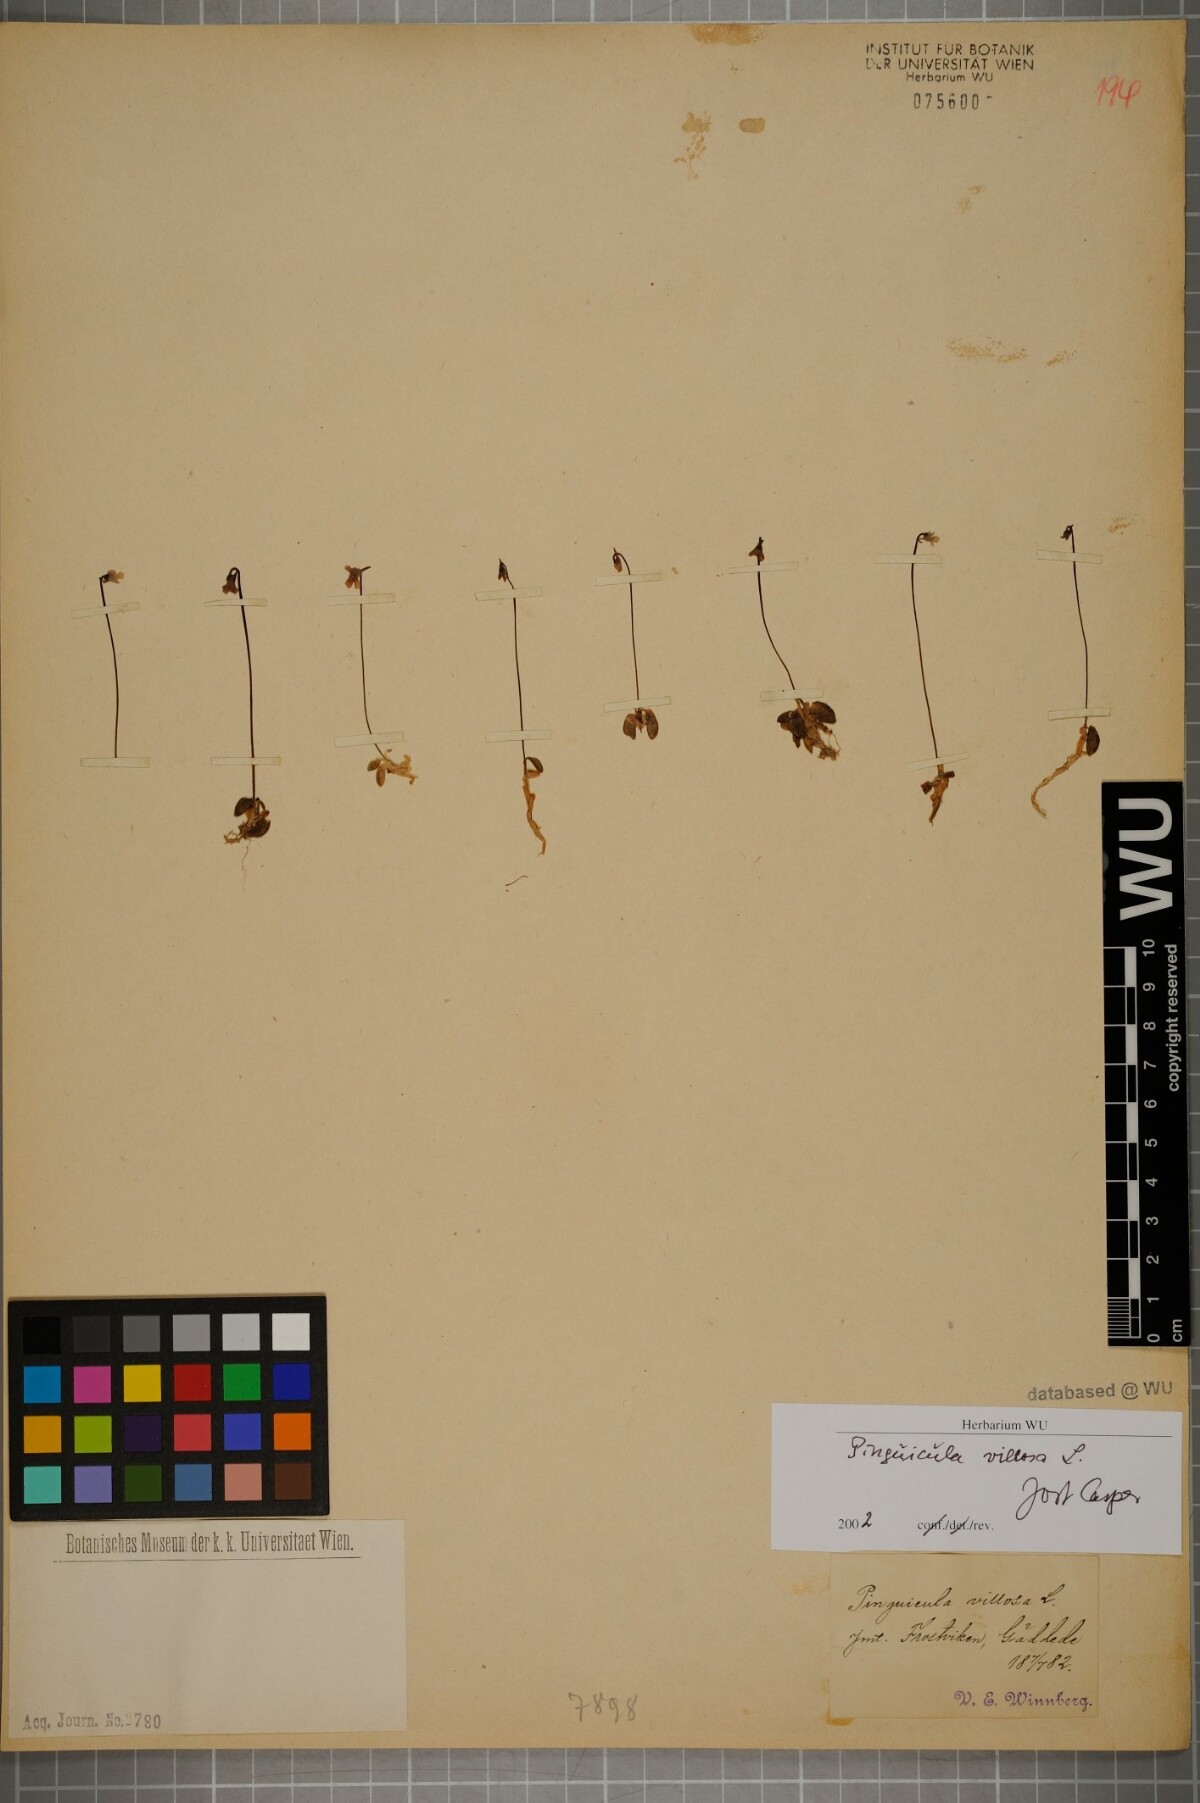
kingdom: Plantae
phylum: Tracheophyta
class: Magnoliopsida
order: Lamiales
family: Lentibulariaceae
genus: Pinguicula
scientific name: Pinguicula villosa
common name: Hairy butterwort
